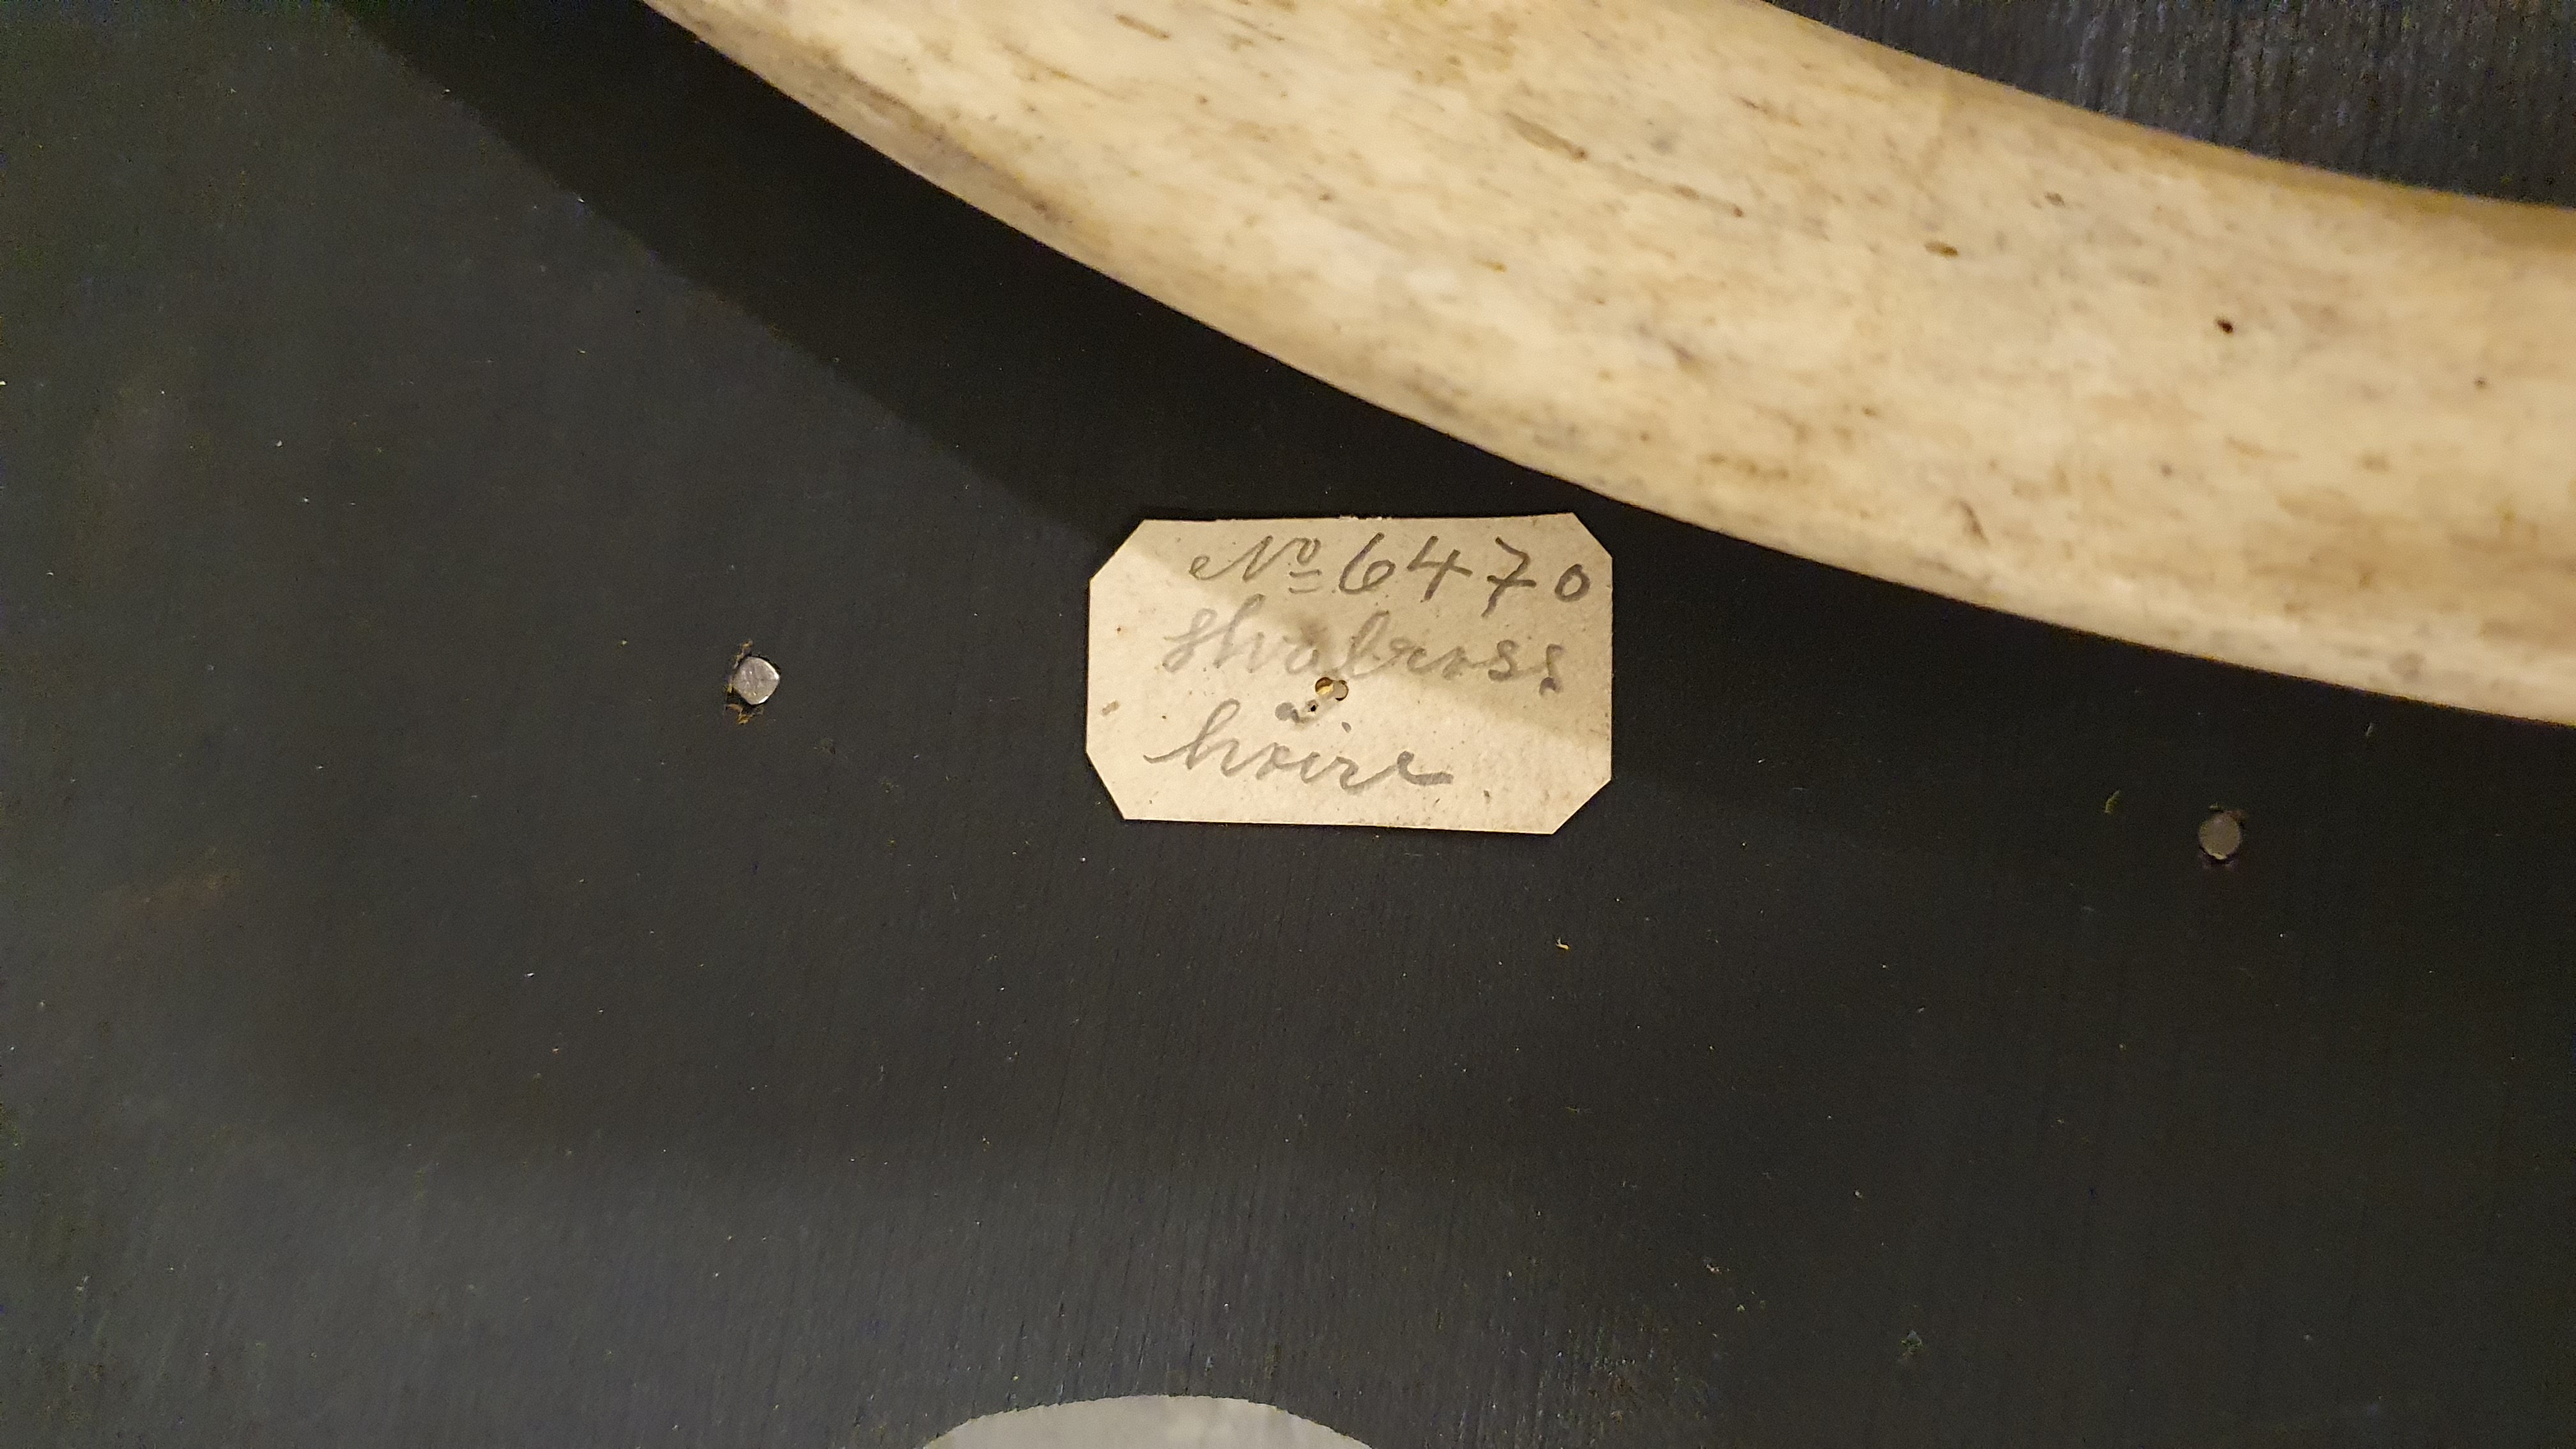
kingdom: Animalia
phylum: Chordata
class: Mammalia
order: Carnivora
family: Odobenidae
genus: Odobenus
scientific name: Odobenus rosmarus
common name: Walrus
